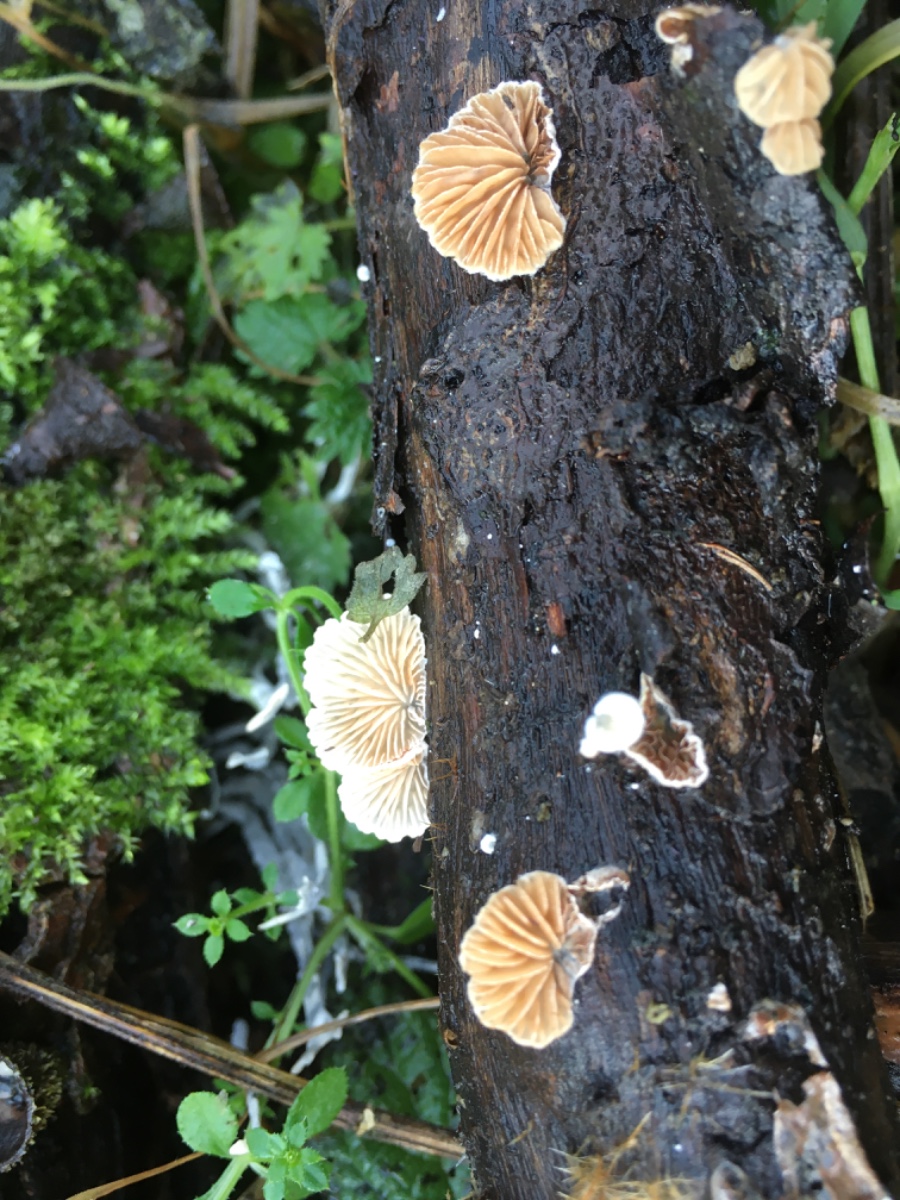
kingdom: Fungi
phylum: Basidiomycota
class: Agaricomycetes
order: Agaricales
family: Crepidotaceae
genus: Crepidotus
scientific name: Crepidotus
